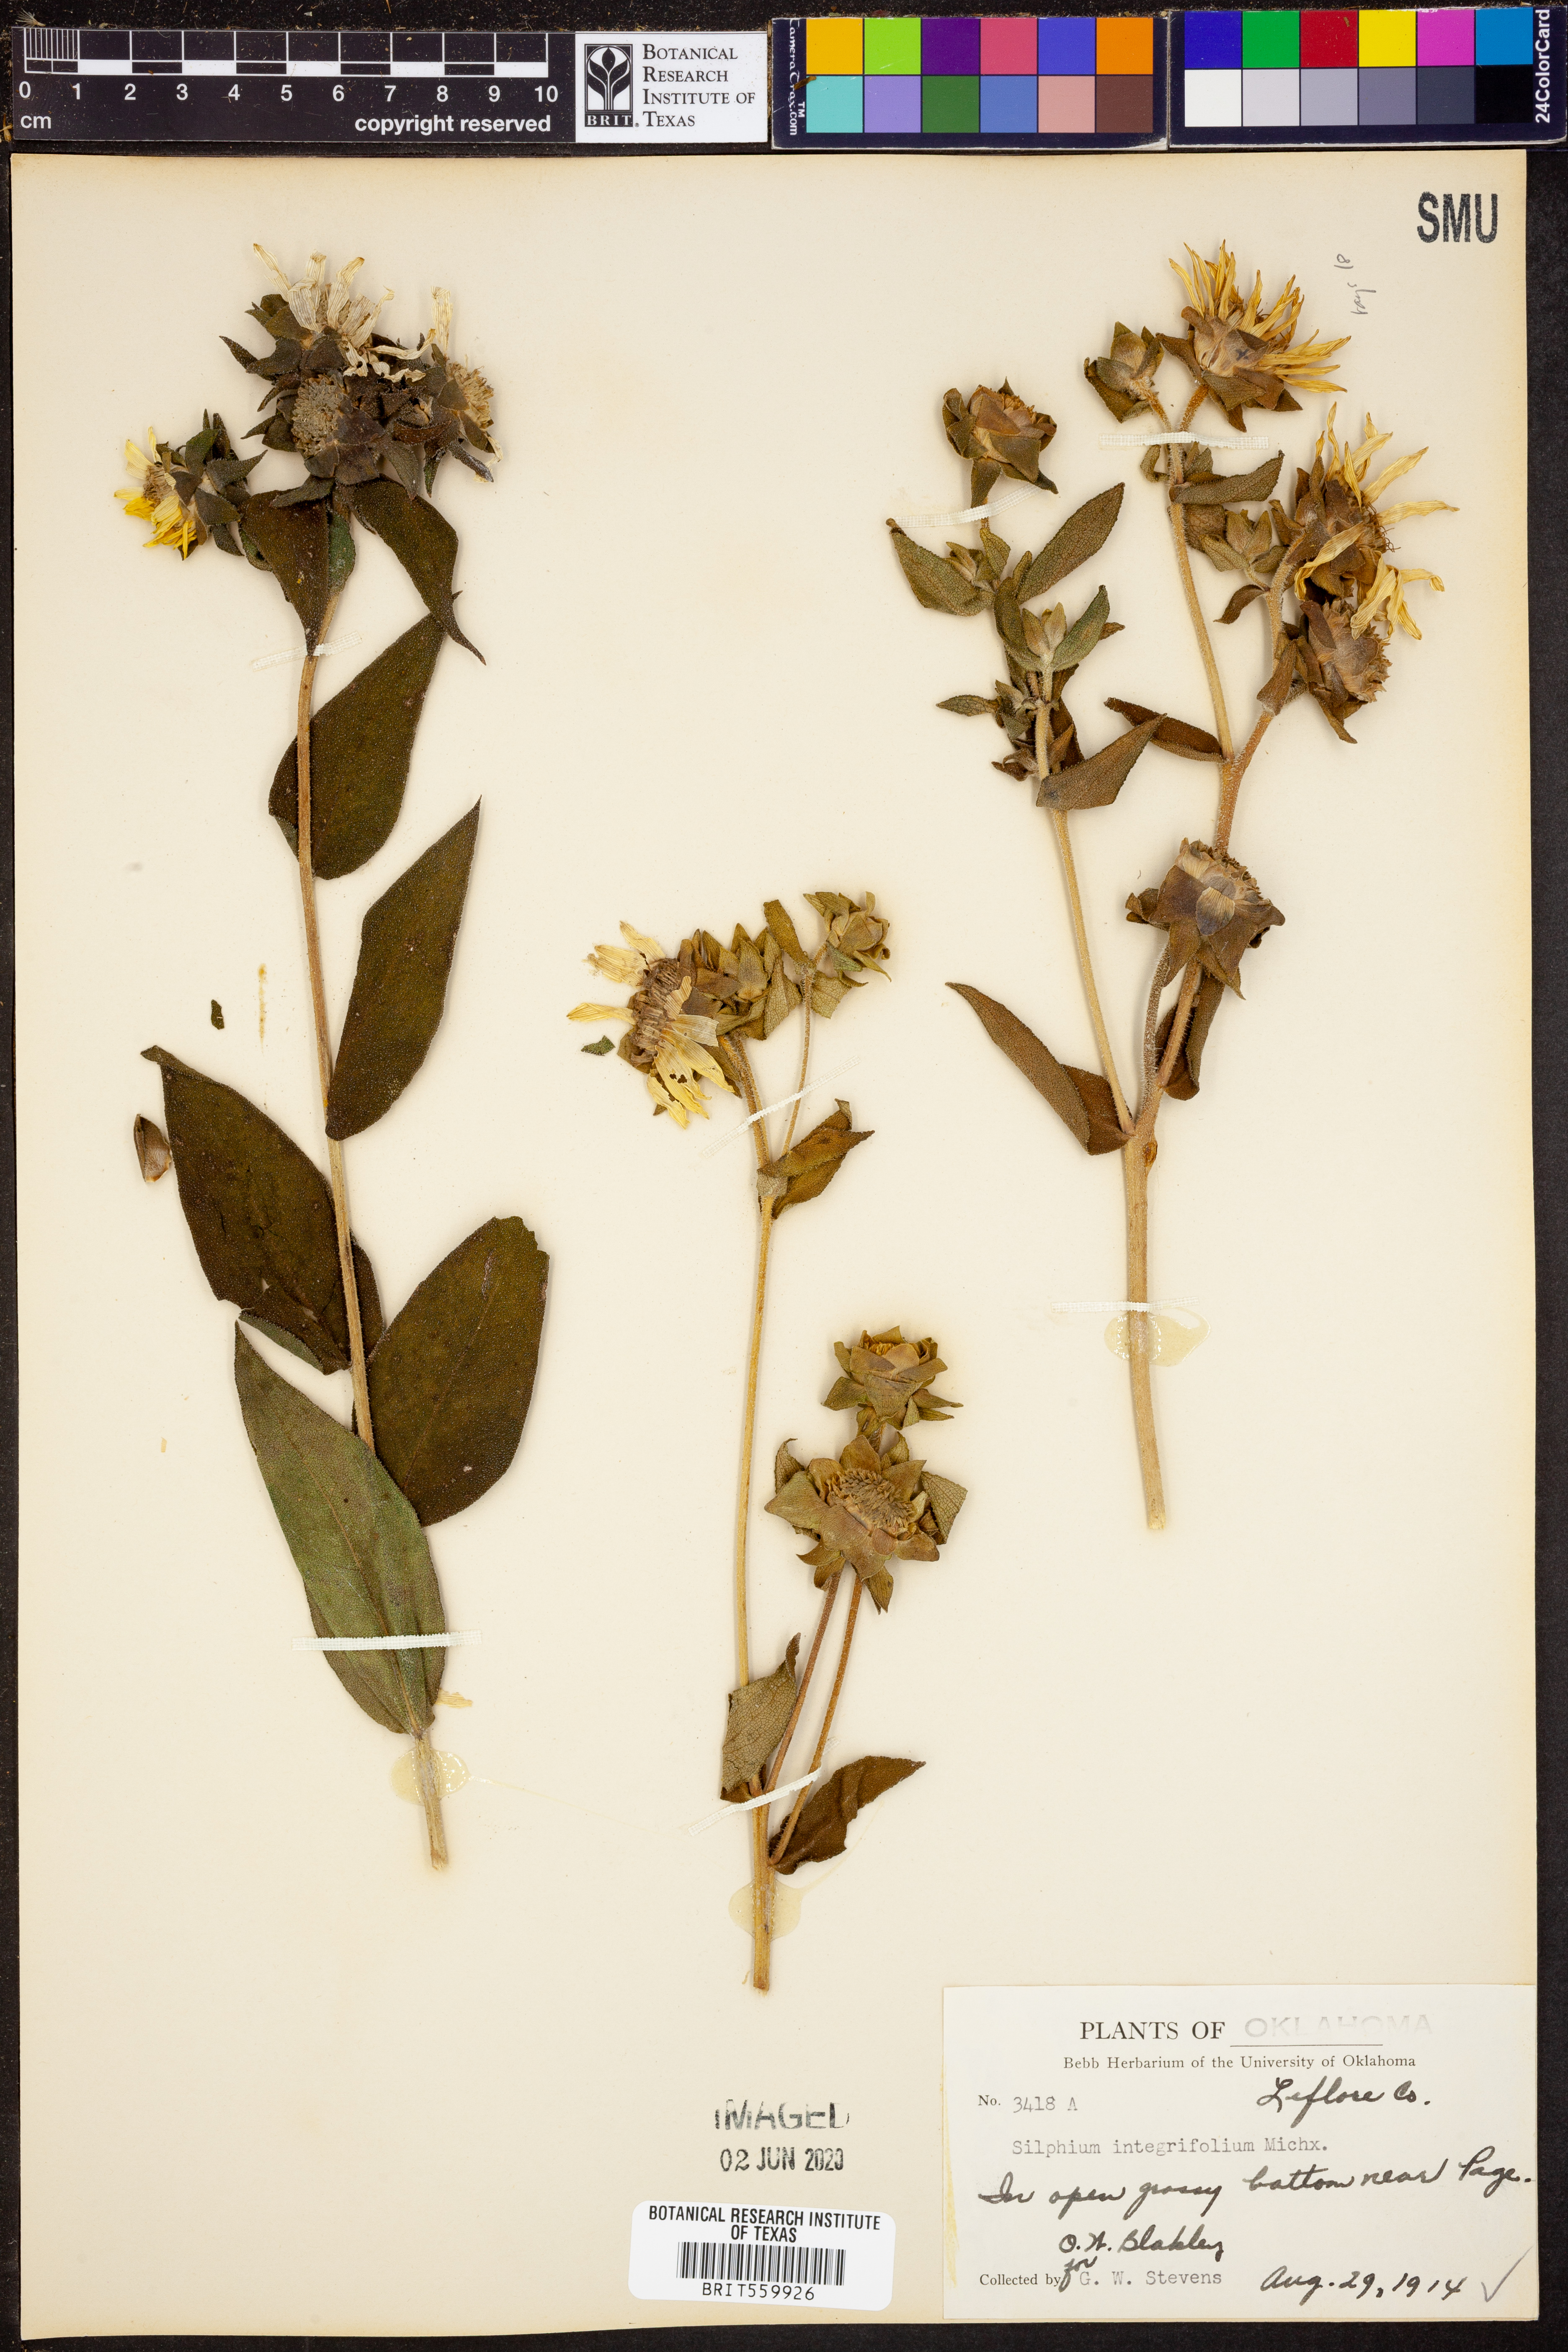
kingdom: Plantae
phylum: Tracheophyta
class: Magnoliopsida
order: Asterales
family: Asteraceae
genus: Silphium
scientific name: Silphium integrifolium
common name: Whole-leaf rosinweed
